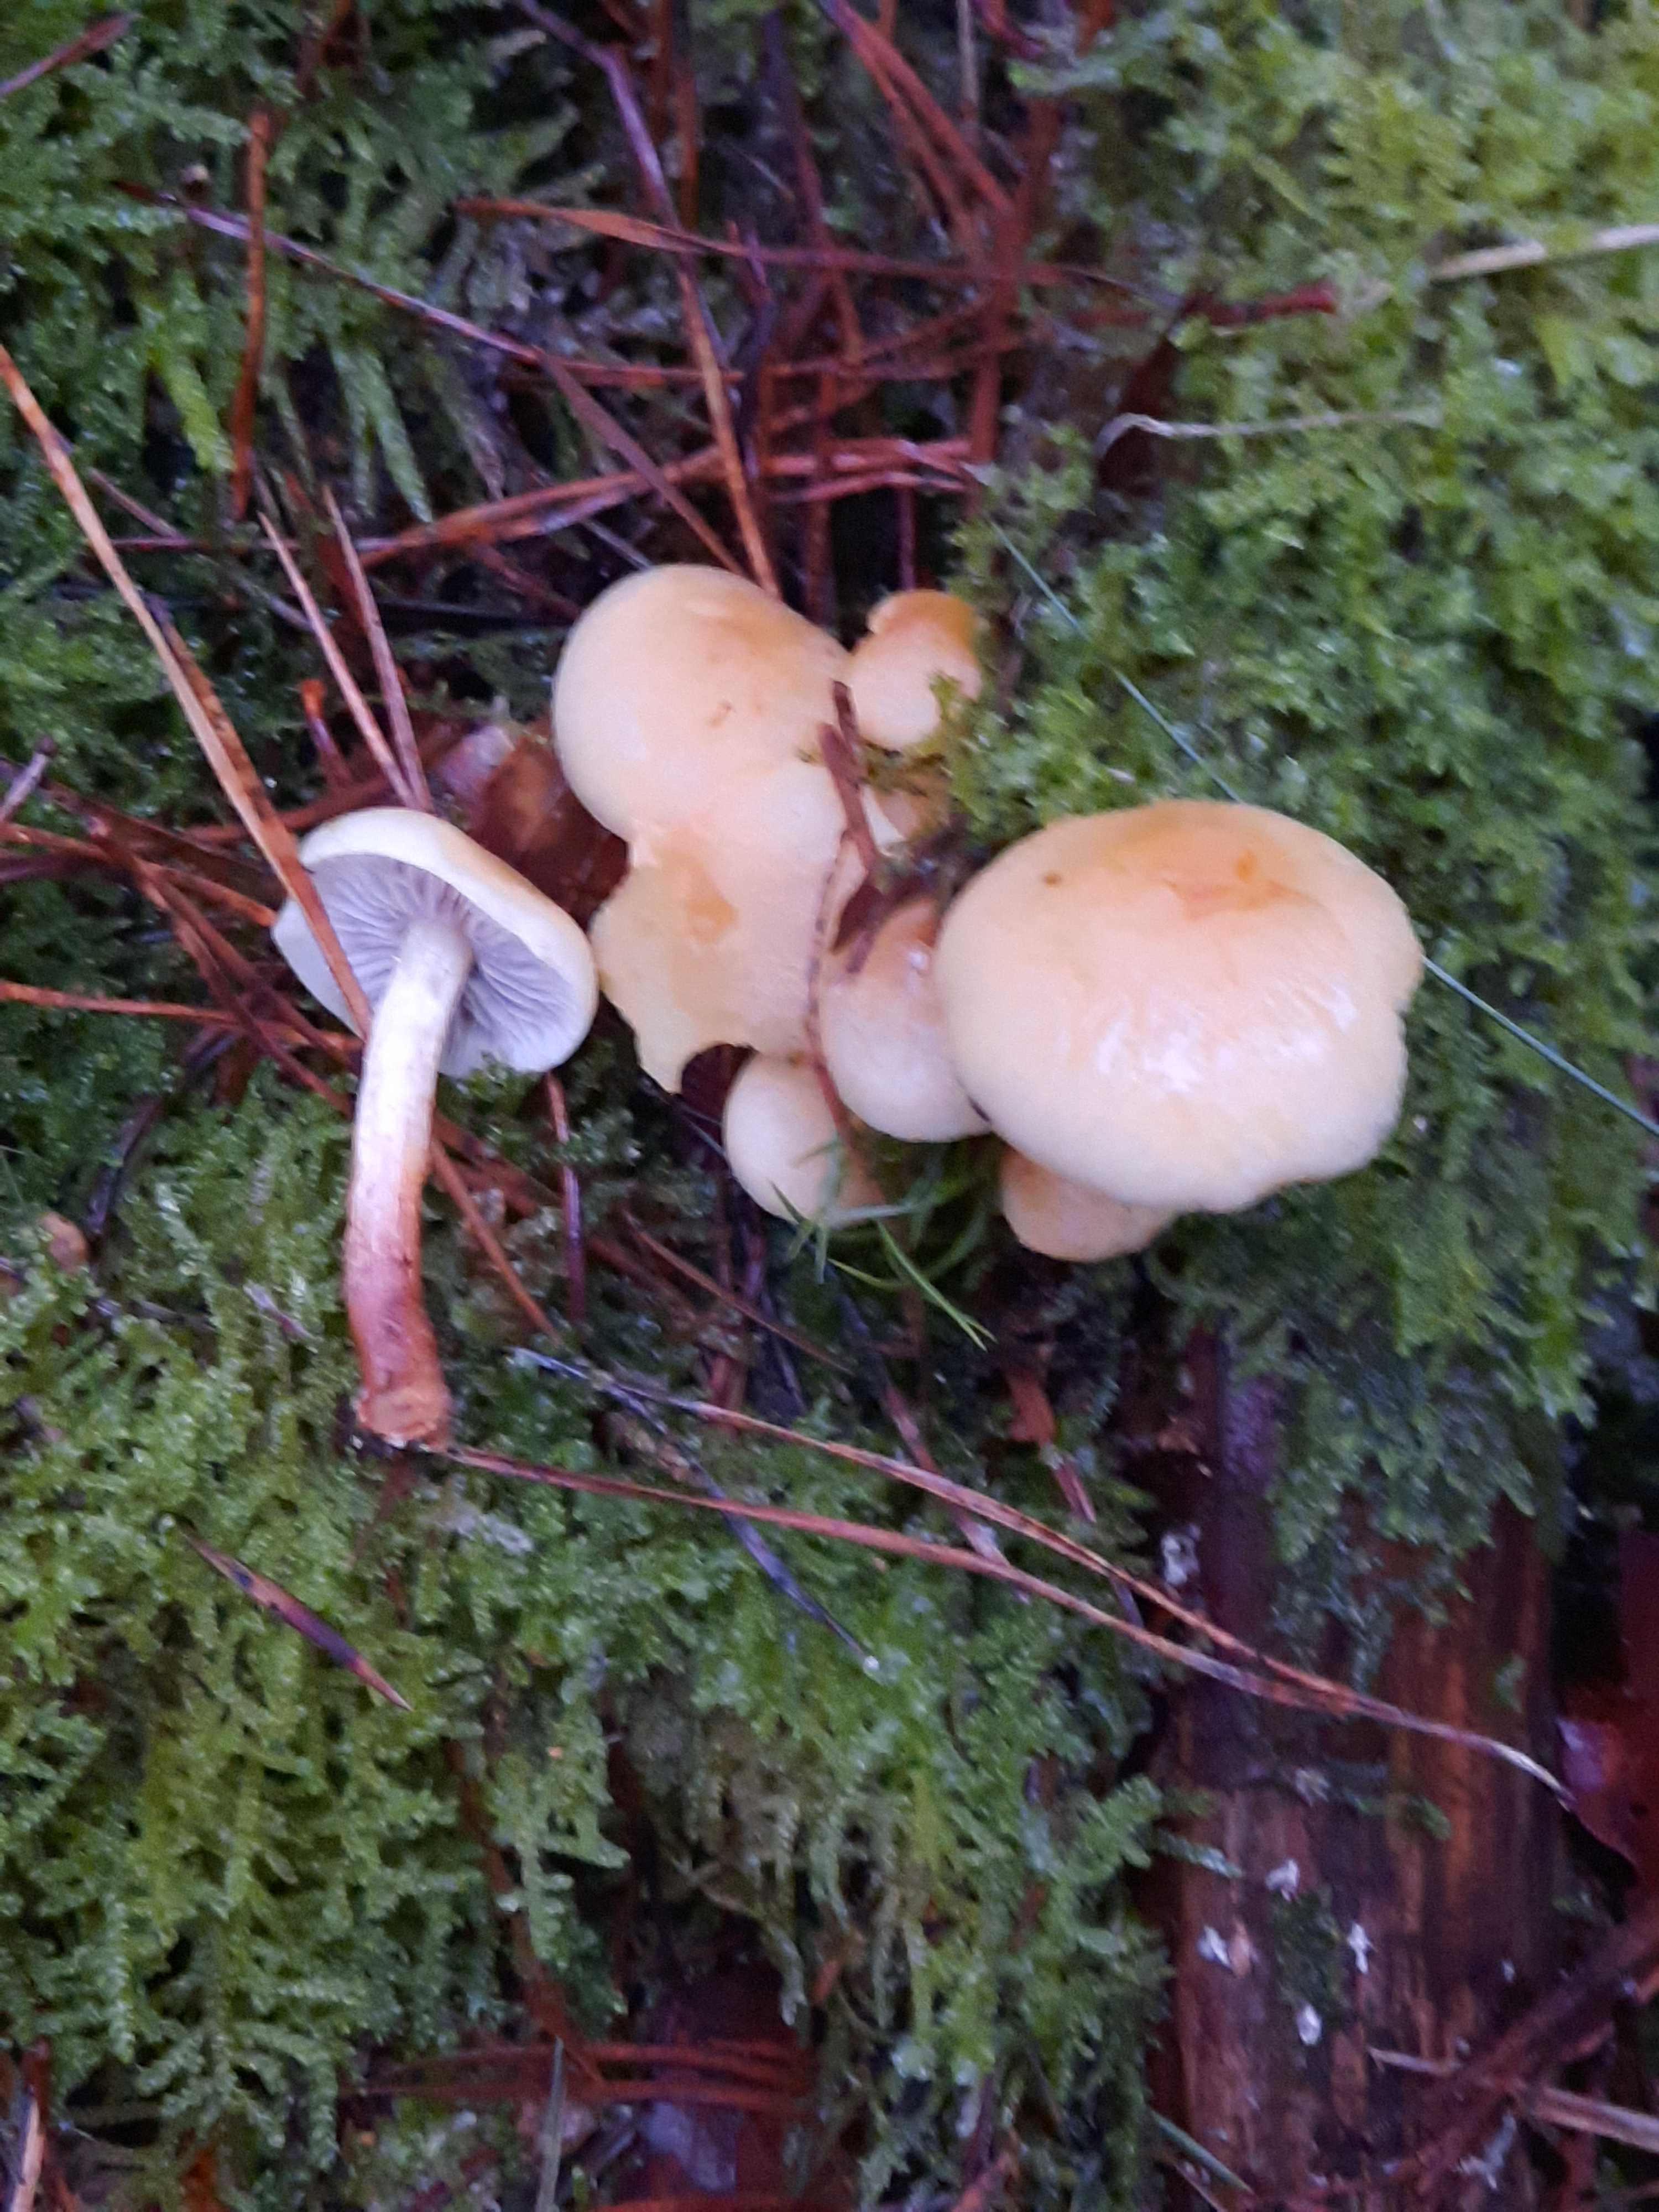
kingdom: Fungi
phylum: Basidiomycota
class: Agaricomycetes
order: Agaricales
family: Strophariaceae
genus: Hypholoma
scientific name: Hypholoma capnoides
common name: gran-svovlhat
